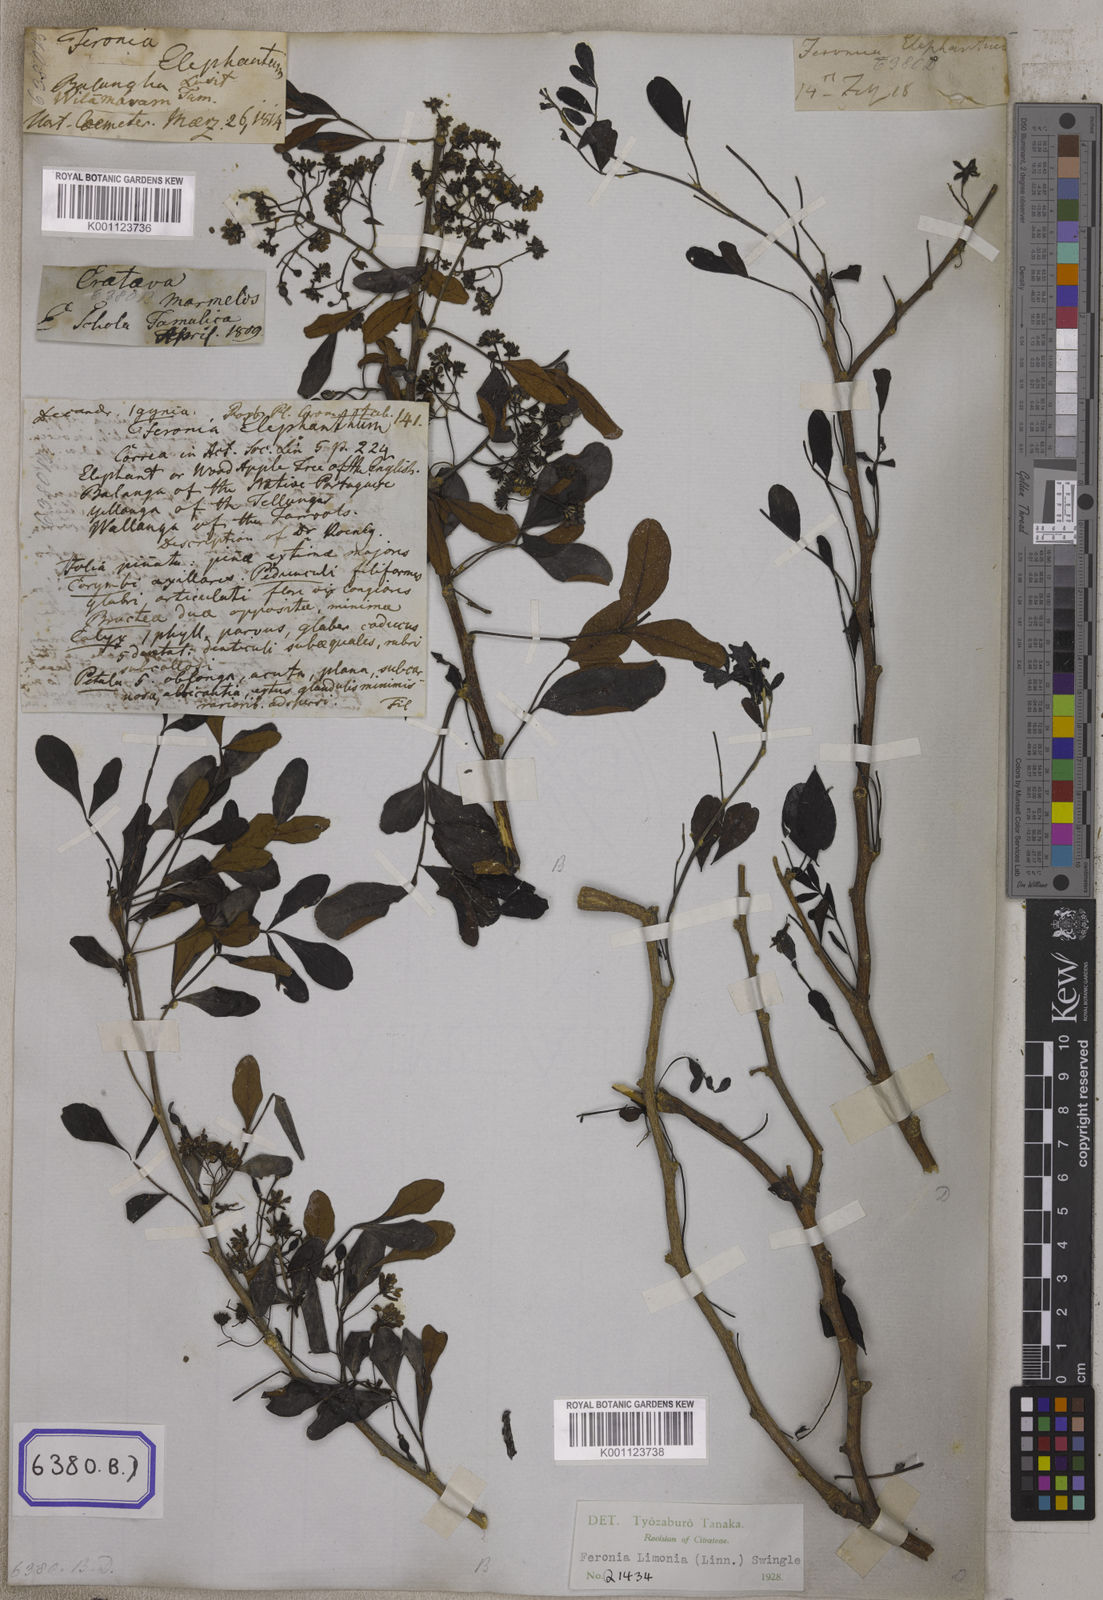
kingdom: Plantae
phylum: Tracheophyta
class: Magnoliopsida
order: Sapindales
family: Rutaceae
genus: Limonia
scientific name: Limonia acidissima
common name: Elephant apple
